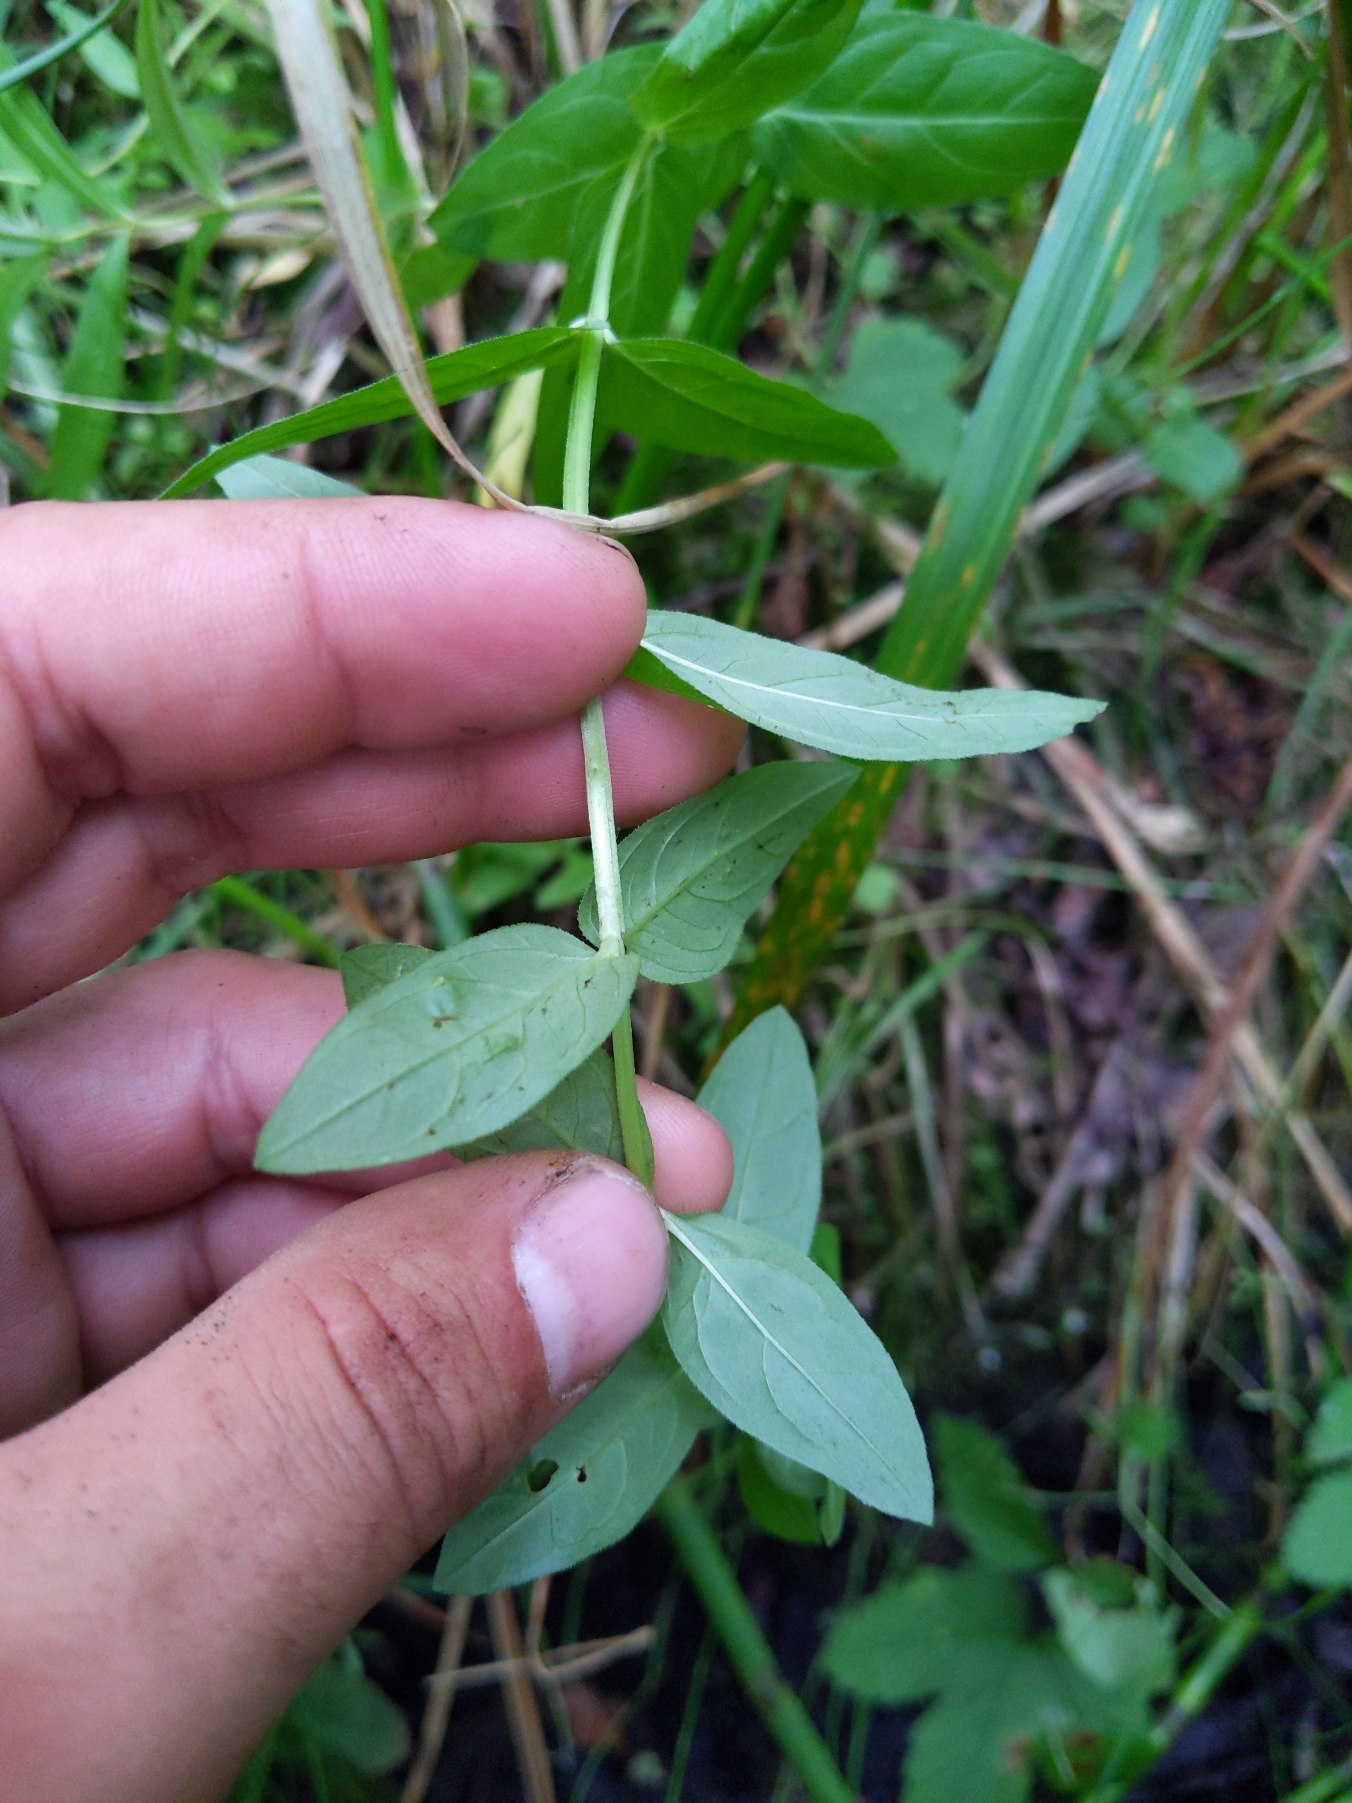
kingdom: Plantae
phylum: Tracheophyta
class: Magnoliopsida
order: Myrtales
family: Lythraceae
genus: Lythrum
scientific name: Lythrum salicaria
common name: Kattehale
